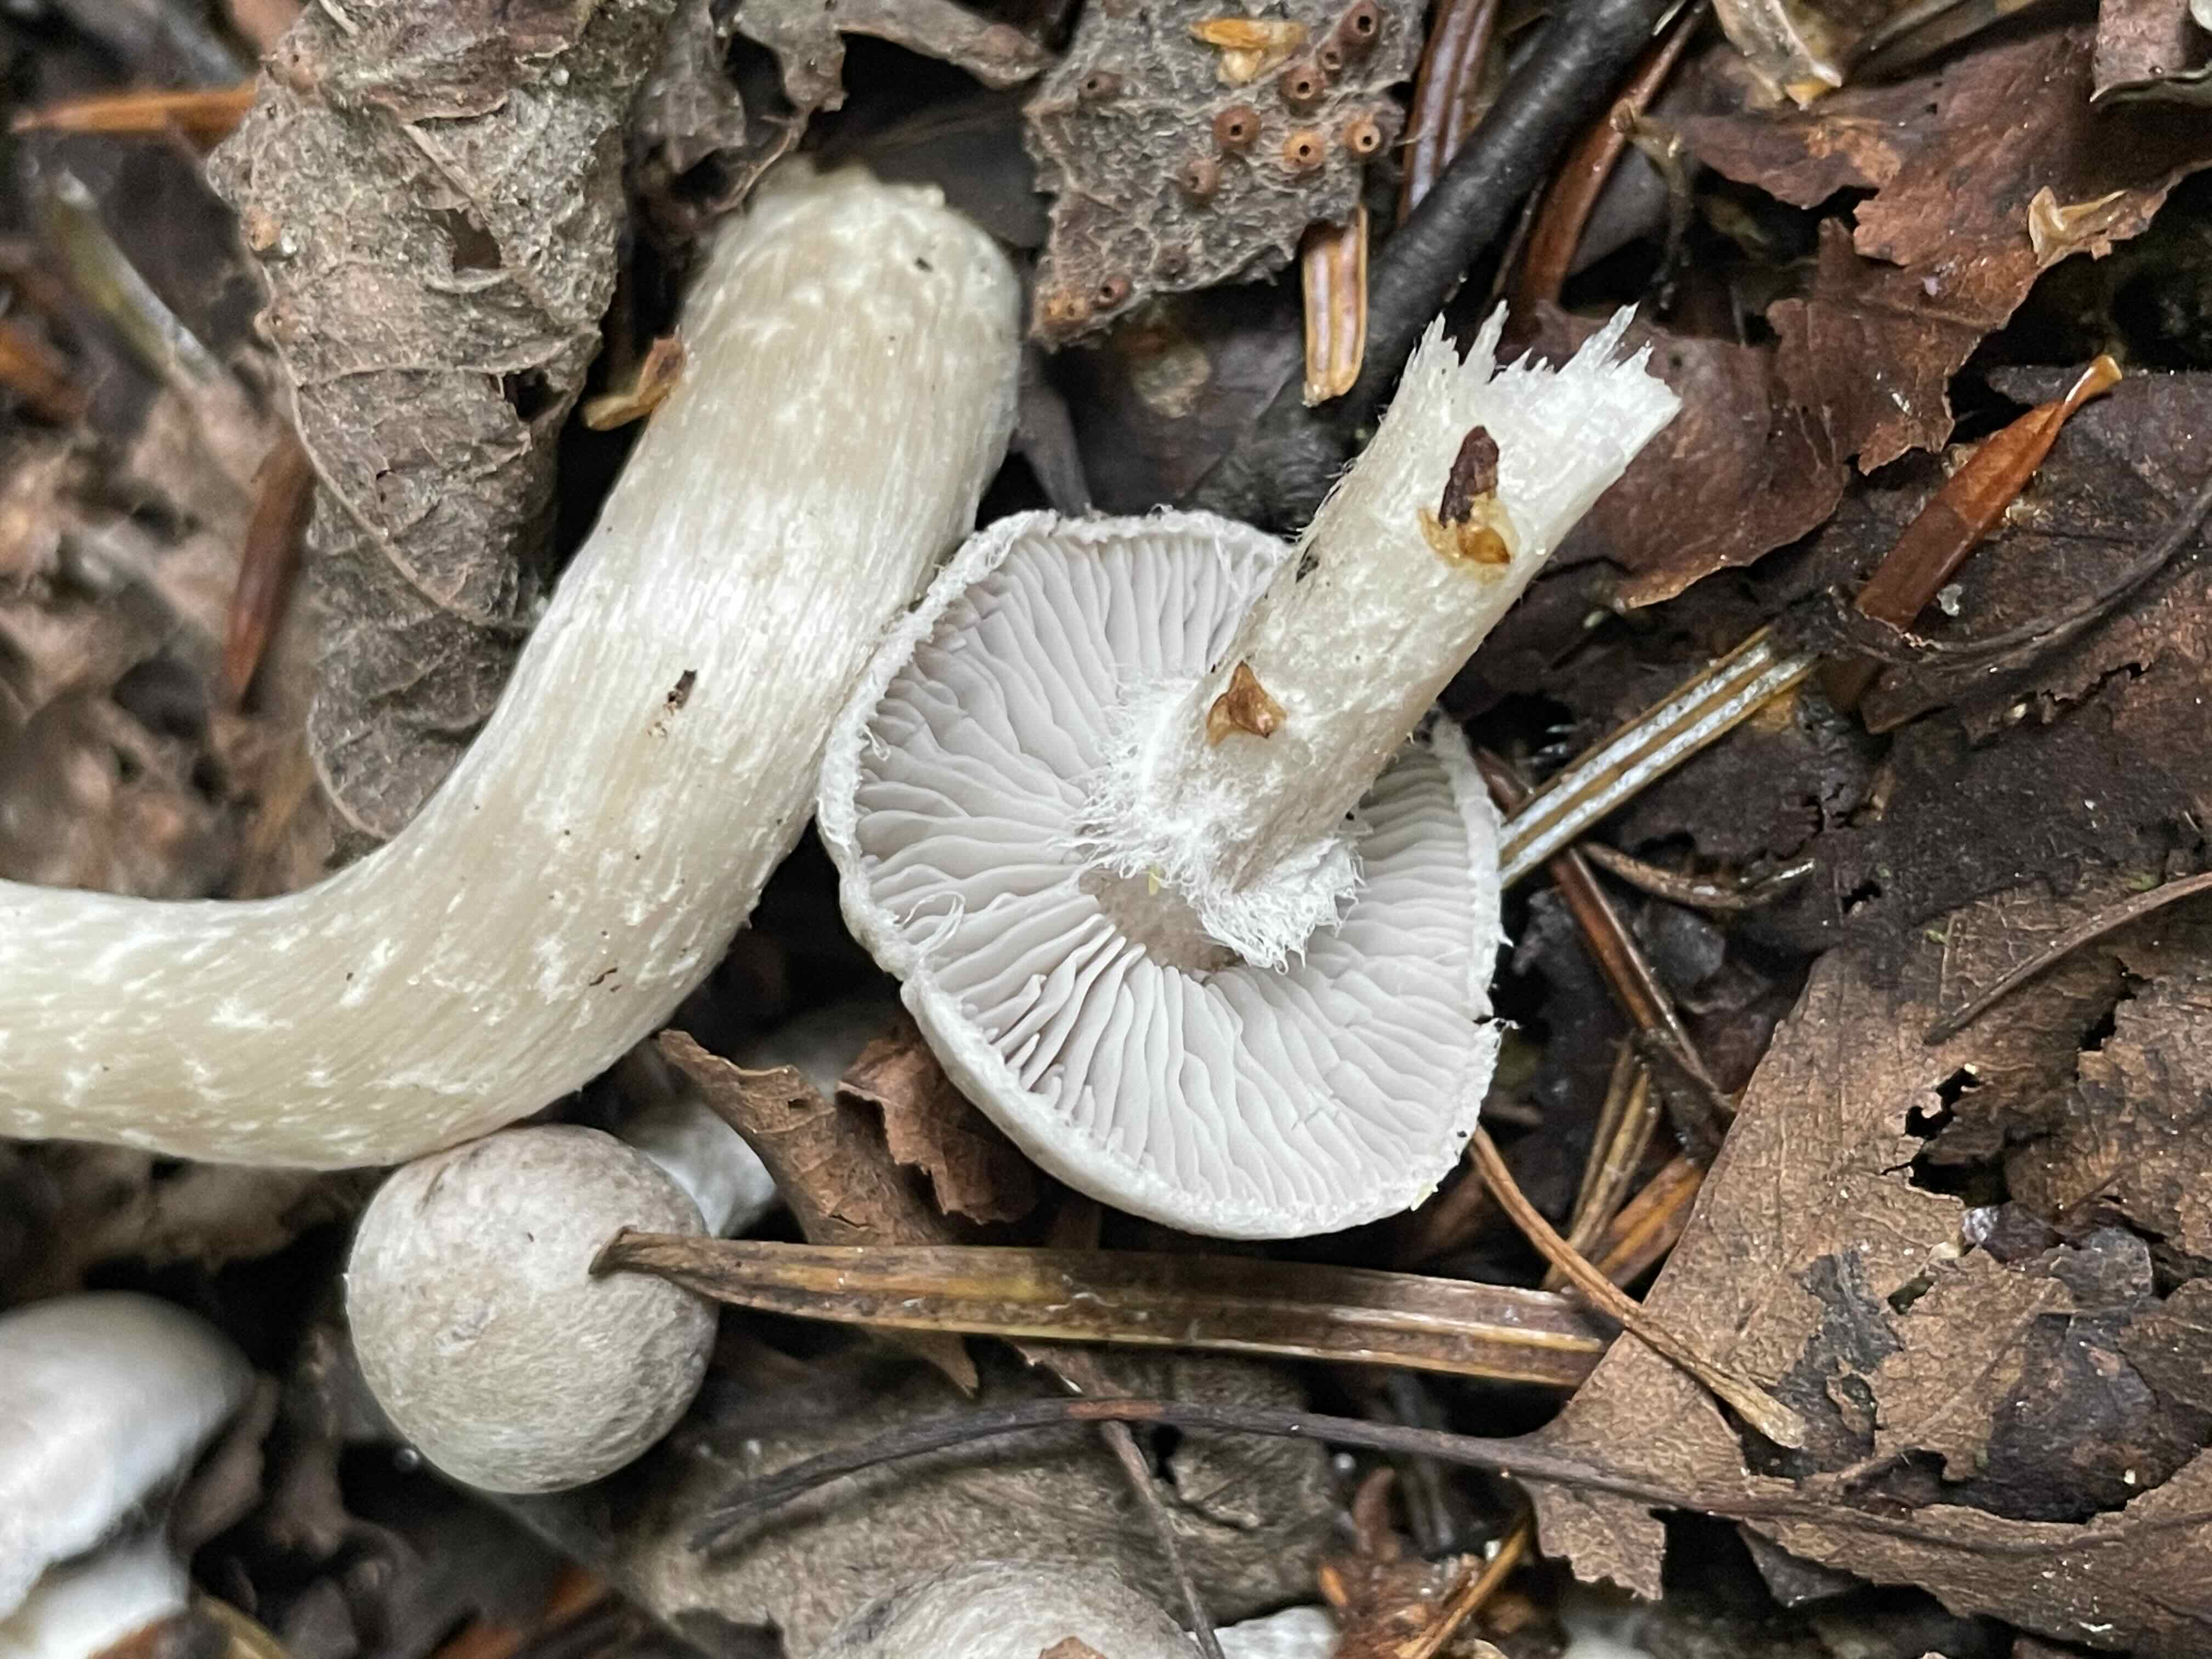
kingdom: Fungi
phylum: Basidiomycota
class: Agaricomycetes
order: Agaricales
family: Tricholomataceae
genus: Tricholoma
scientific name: Tricholoma cingulatum
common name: ring-ridderhat
